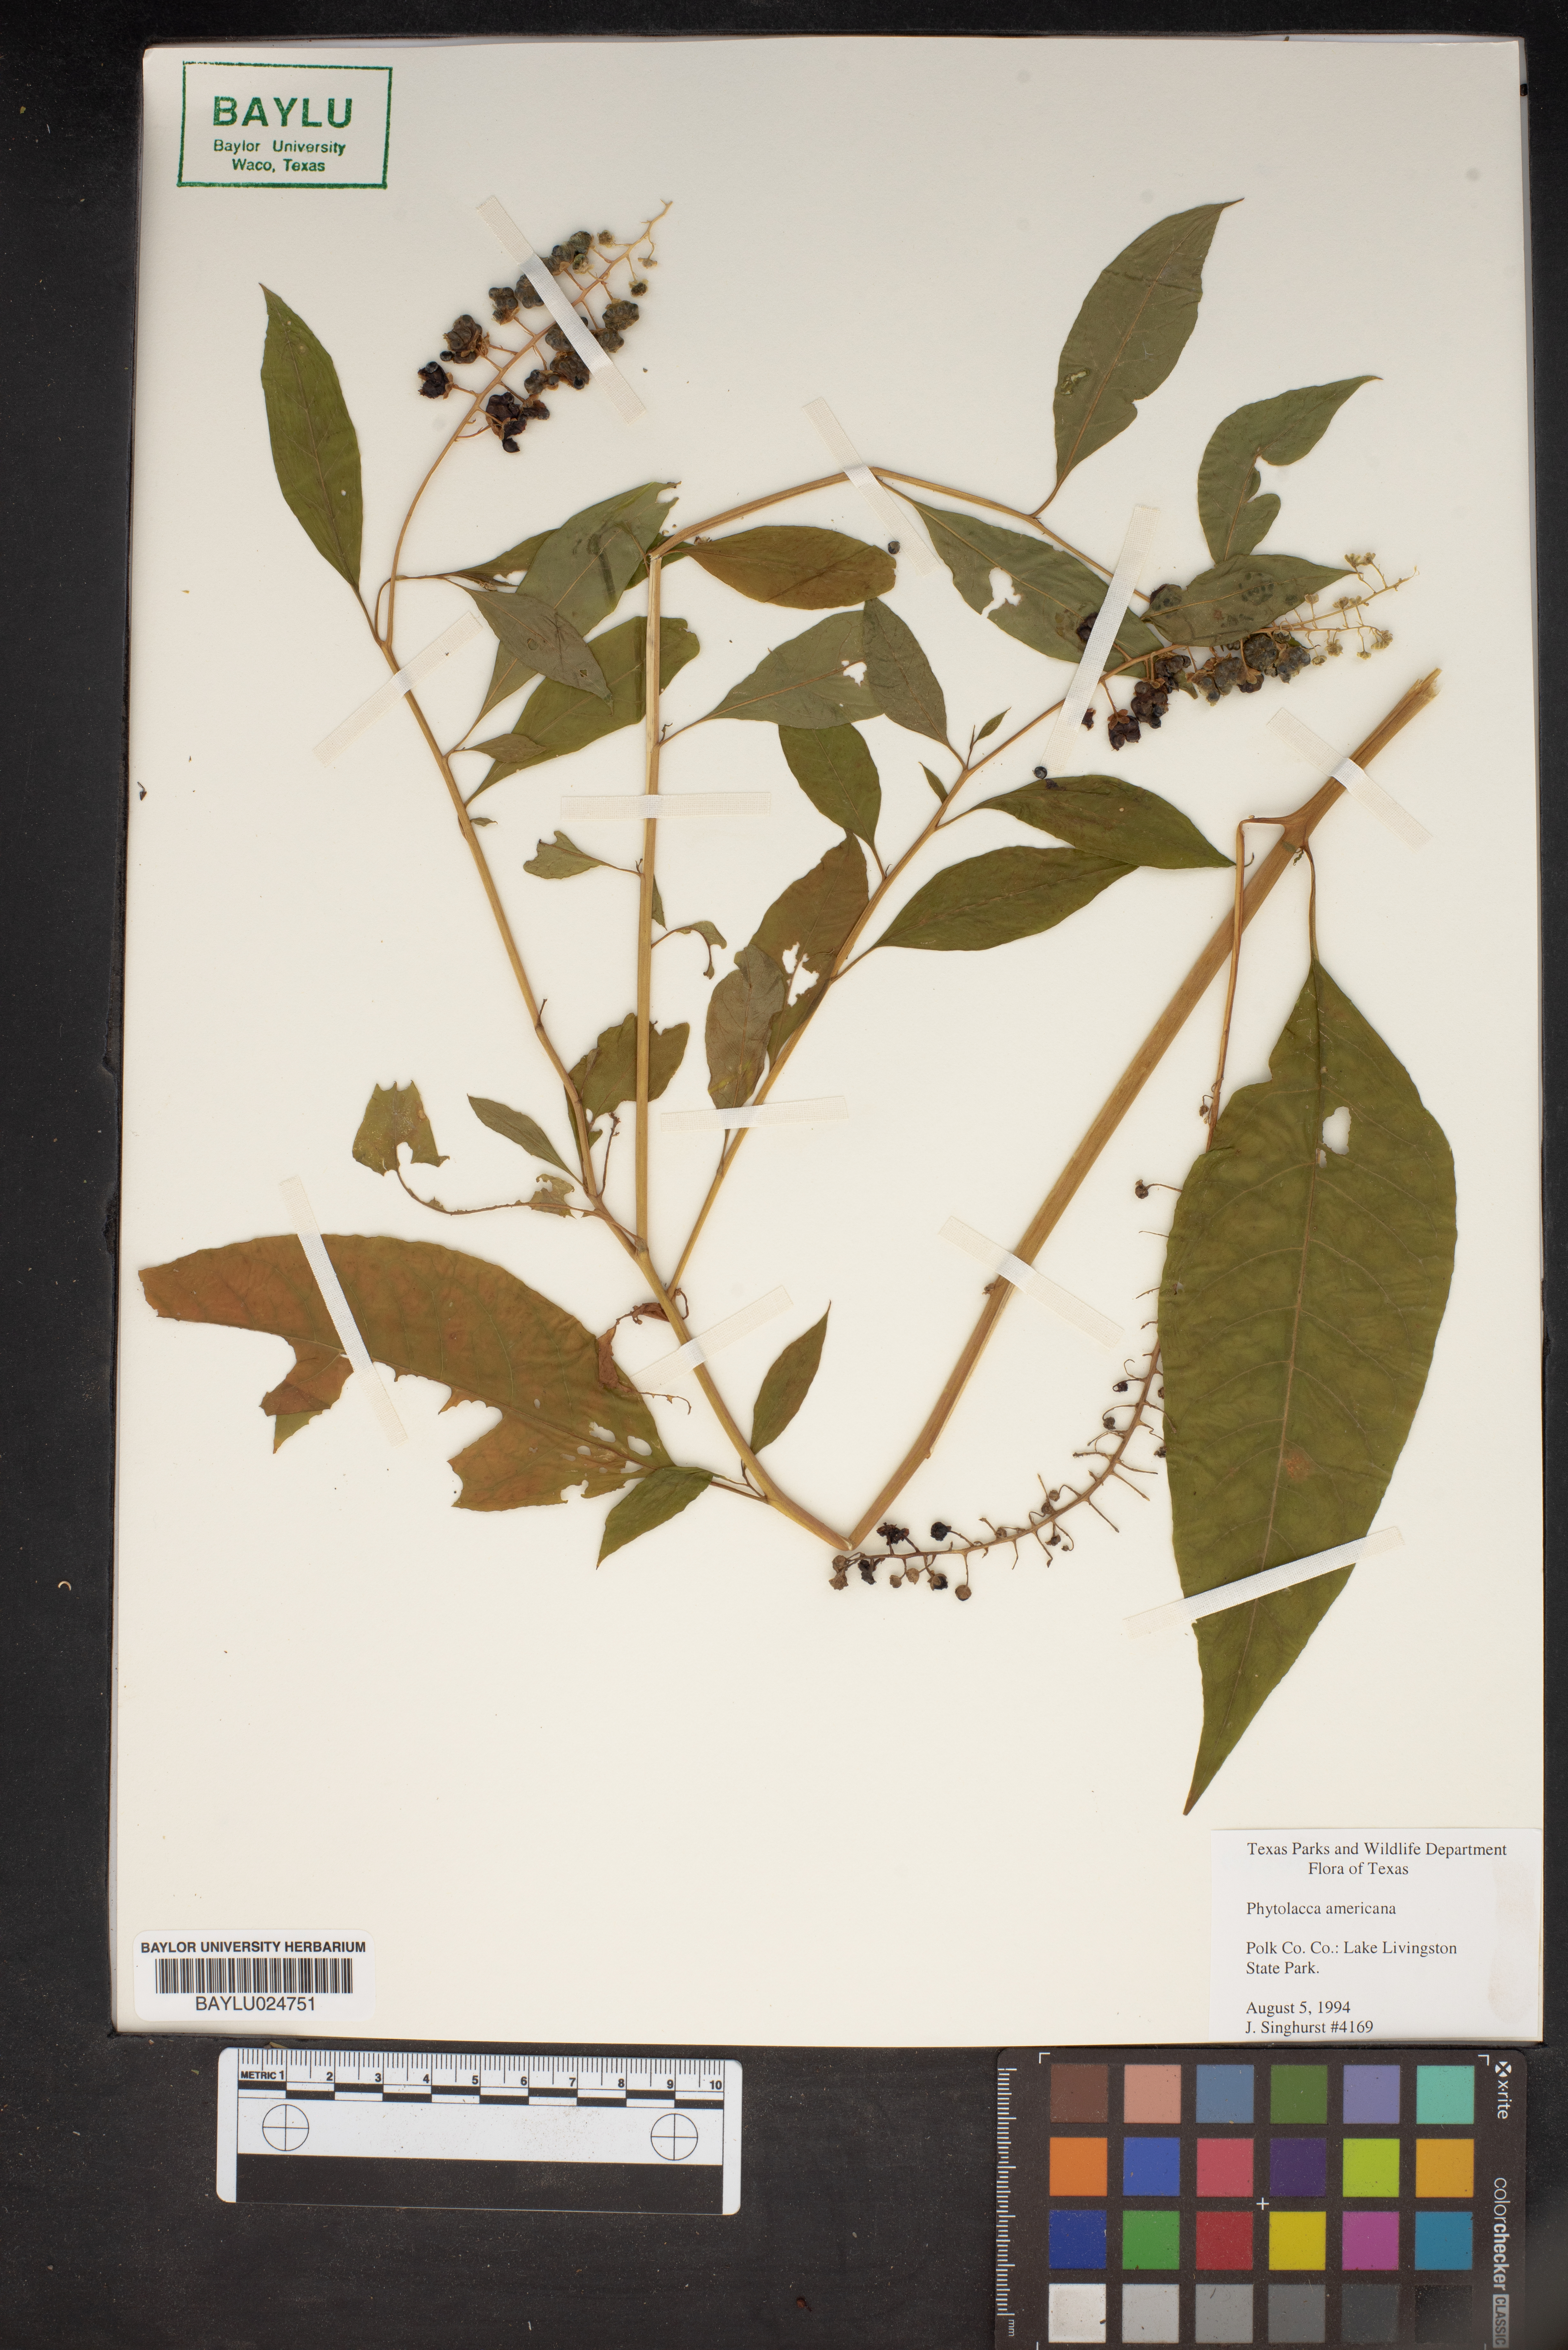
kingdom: Plantae
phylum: Tracheophyta
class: Magnoliopsida
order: Caryophyllales
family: Phytolaccaceae
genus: Phytolacca
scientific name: Phytolacca americana
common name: American pokeweed
